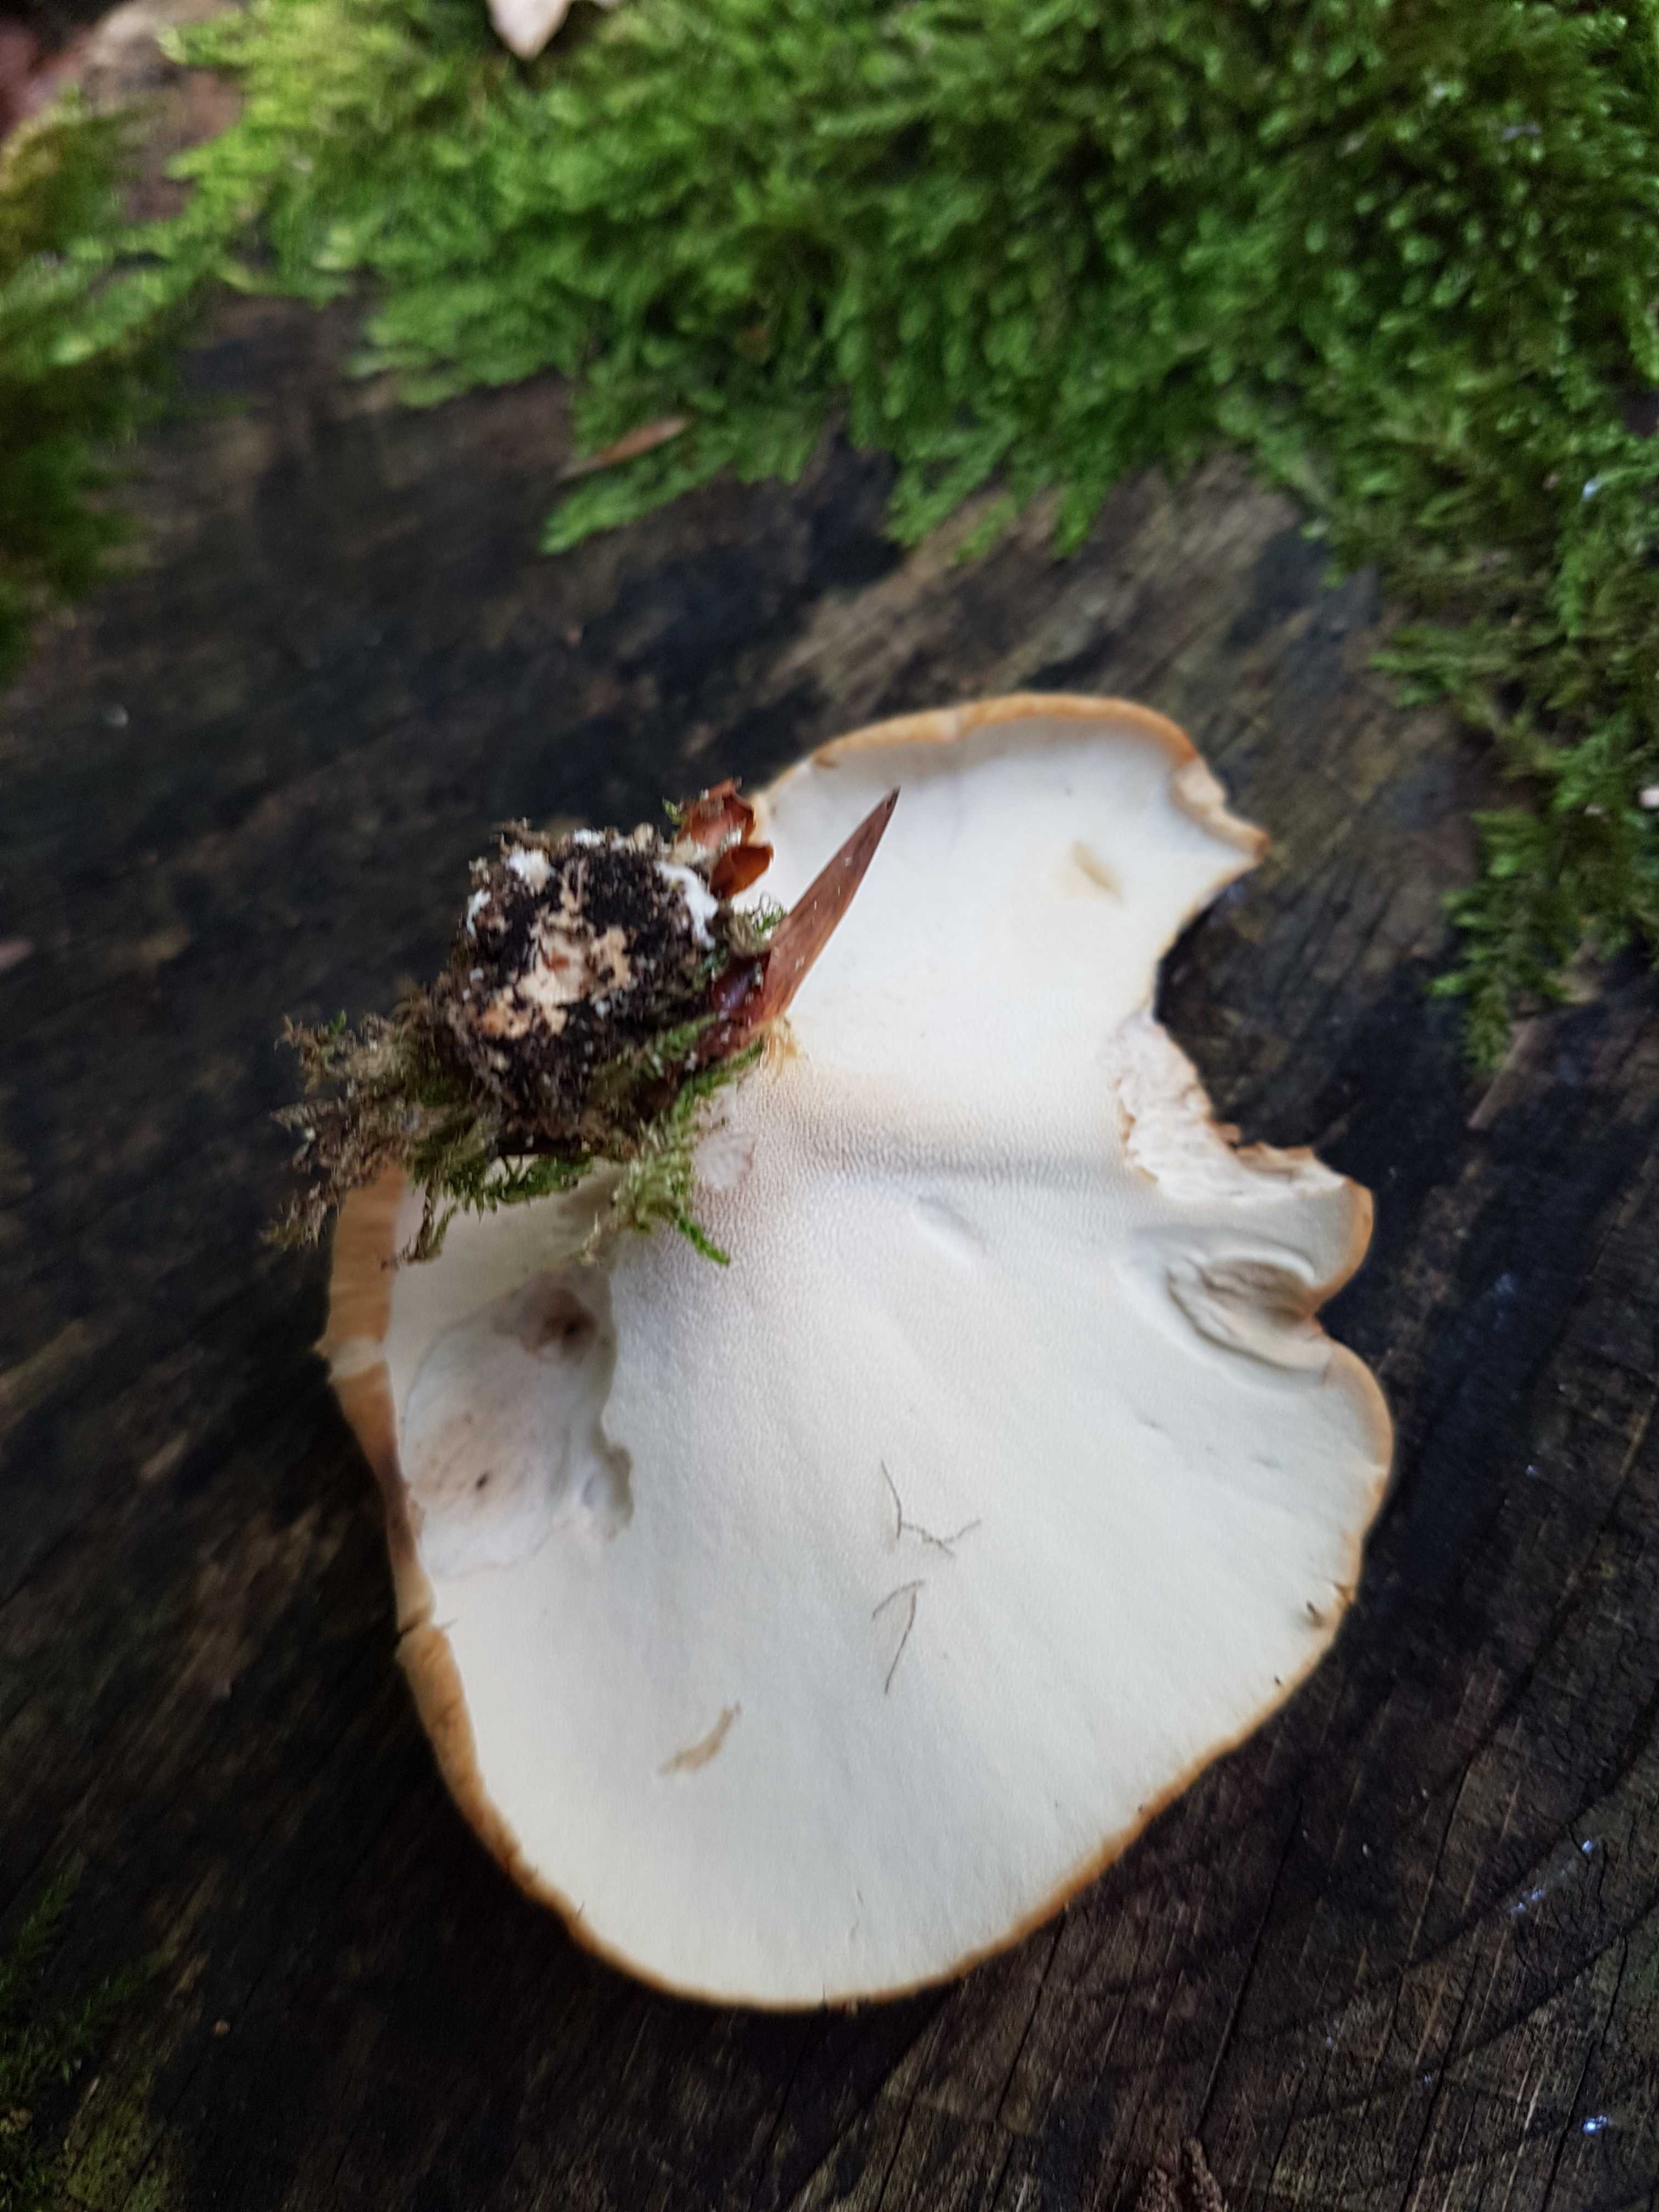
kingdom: Fungi
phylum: Basidiomycota
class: Agaricomycetes
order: Polyporales
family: Polyporaceae
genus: Cerioporus
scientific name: Cerioporus varius
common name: foranderlig stilkporesvamp
